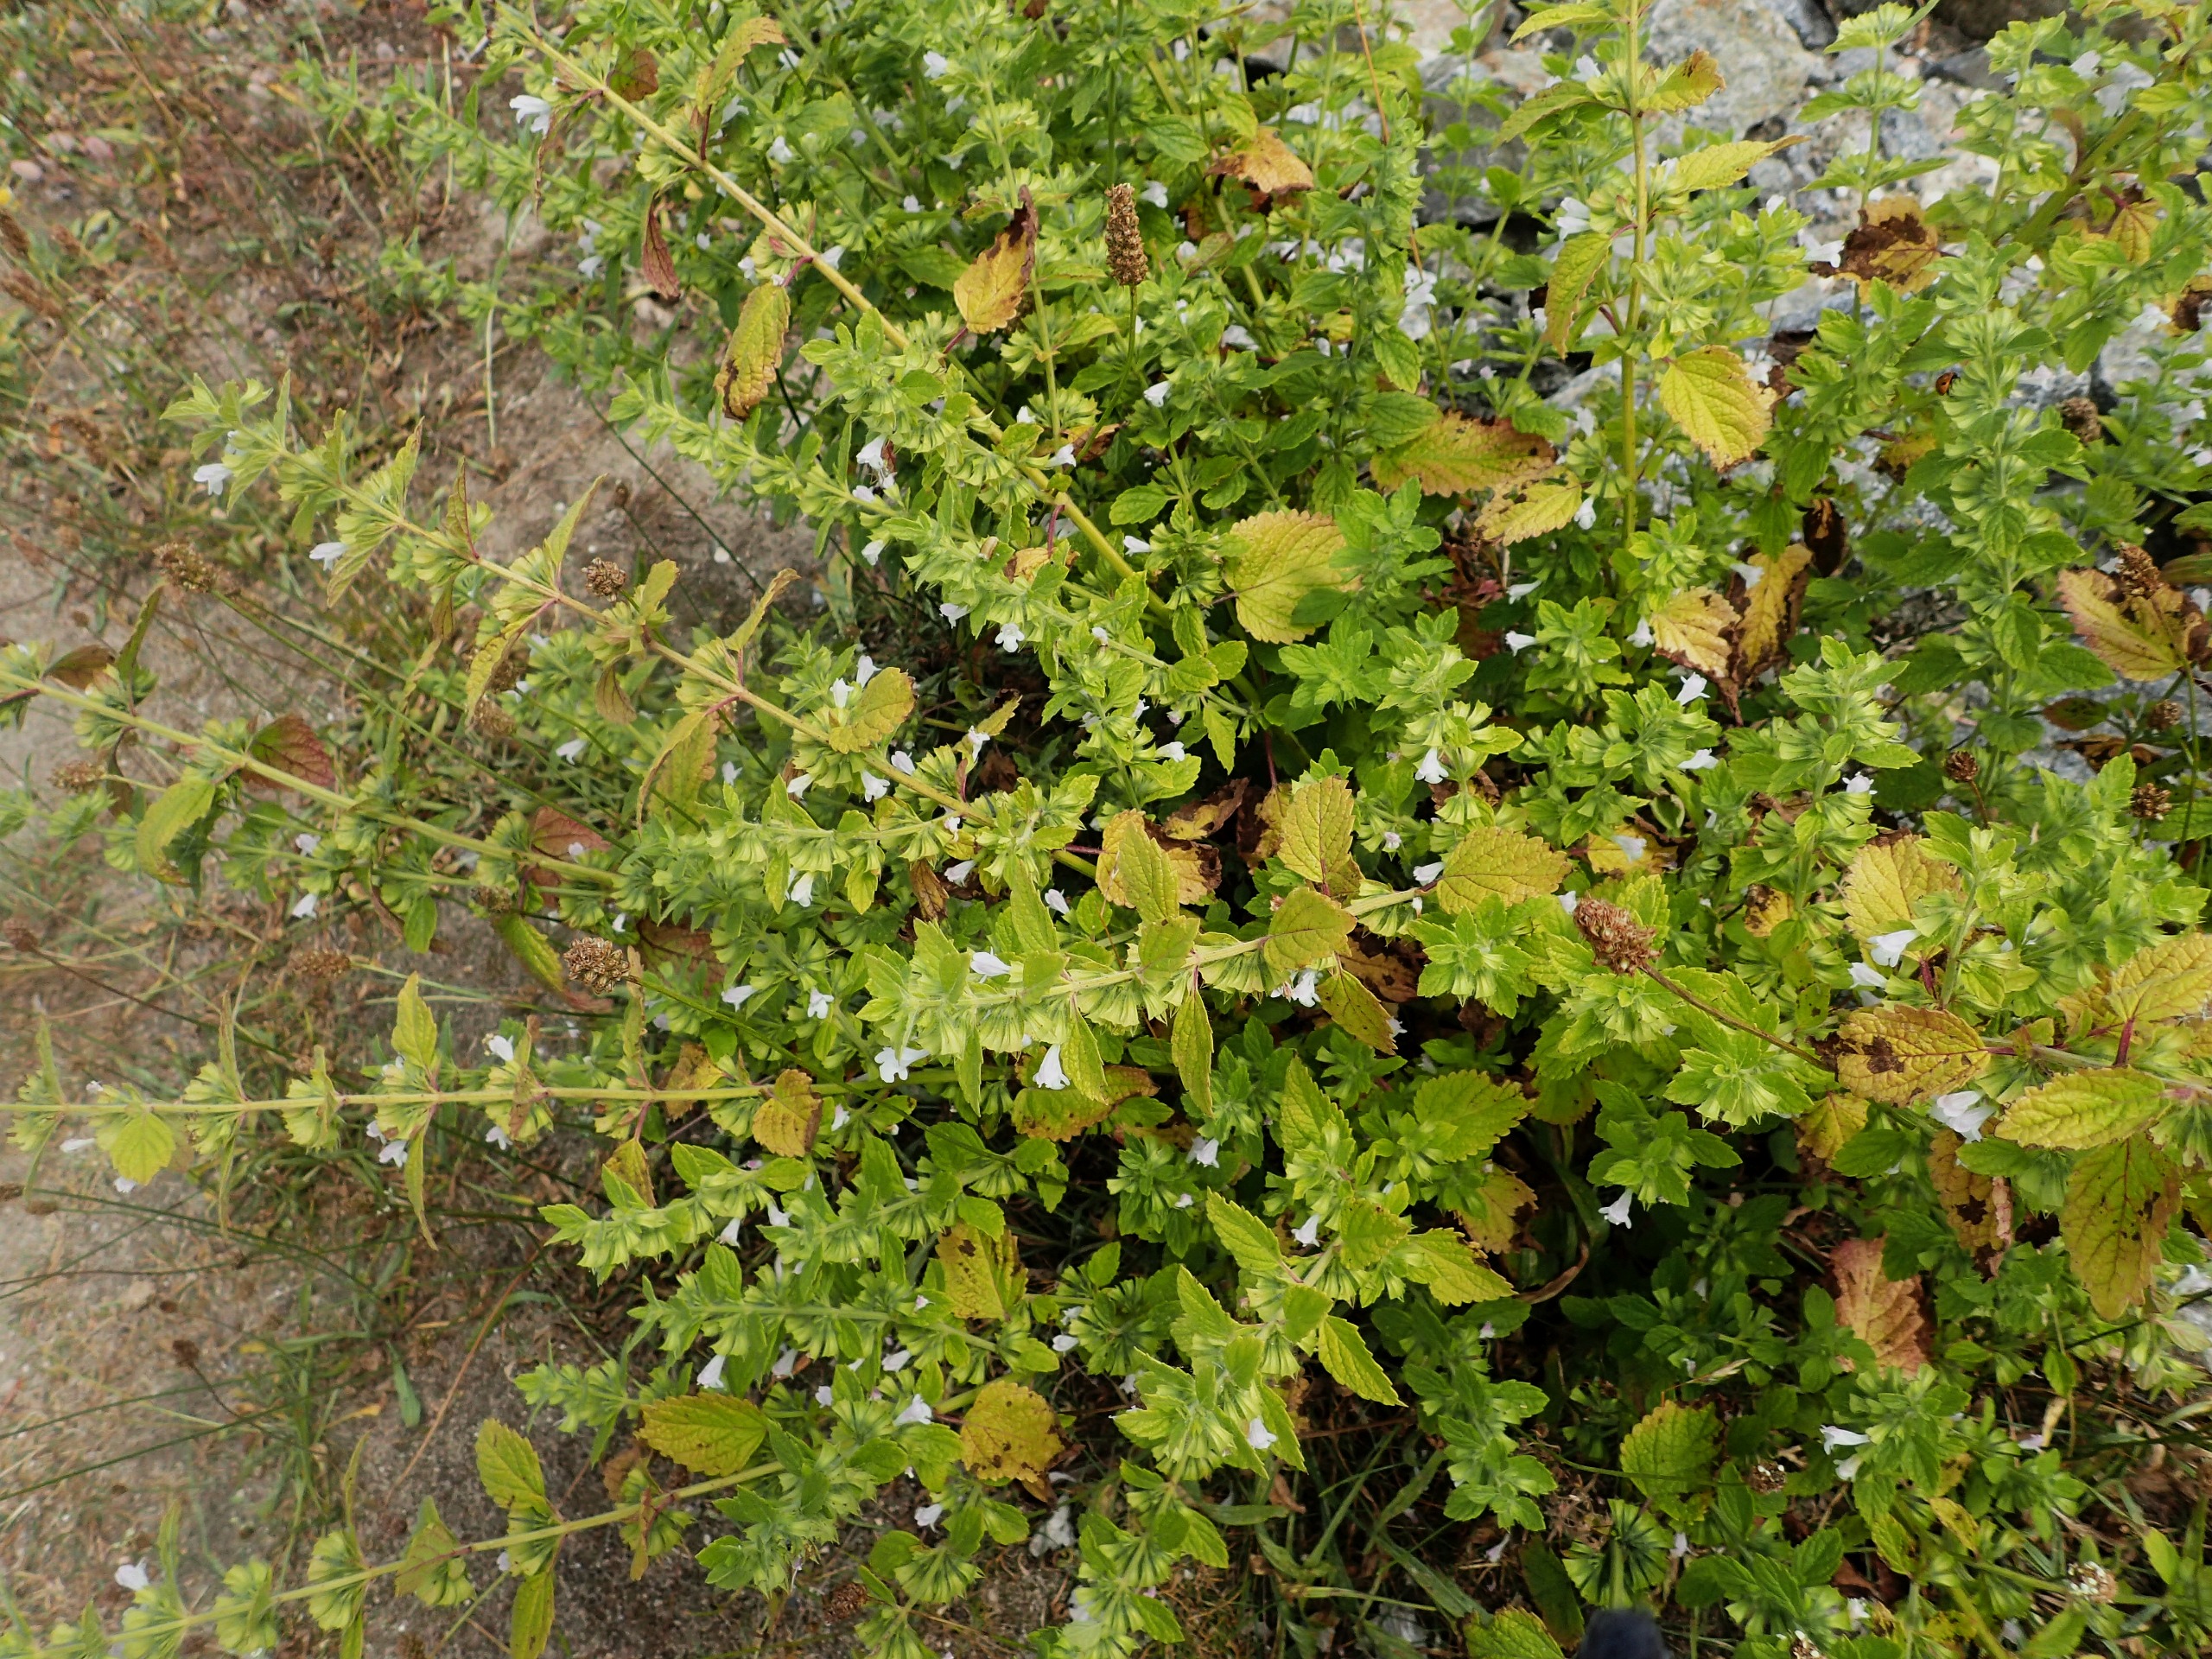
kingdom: Plantae
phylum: Tracheophyta
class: Magnoliopsida
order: Lamiales
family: Lamiaceae
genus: Melissa
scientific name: Melissa officinalis
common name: Citronmelisse
